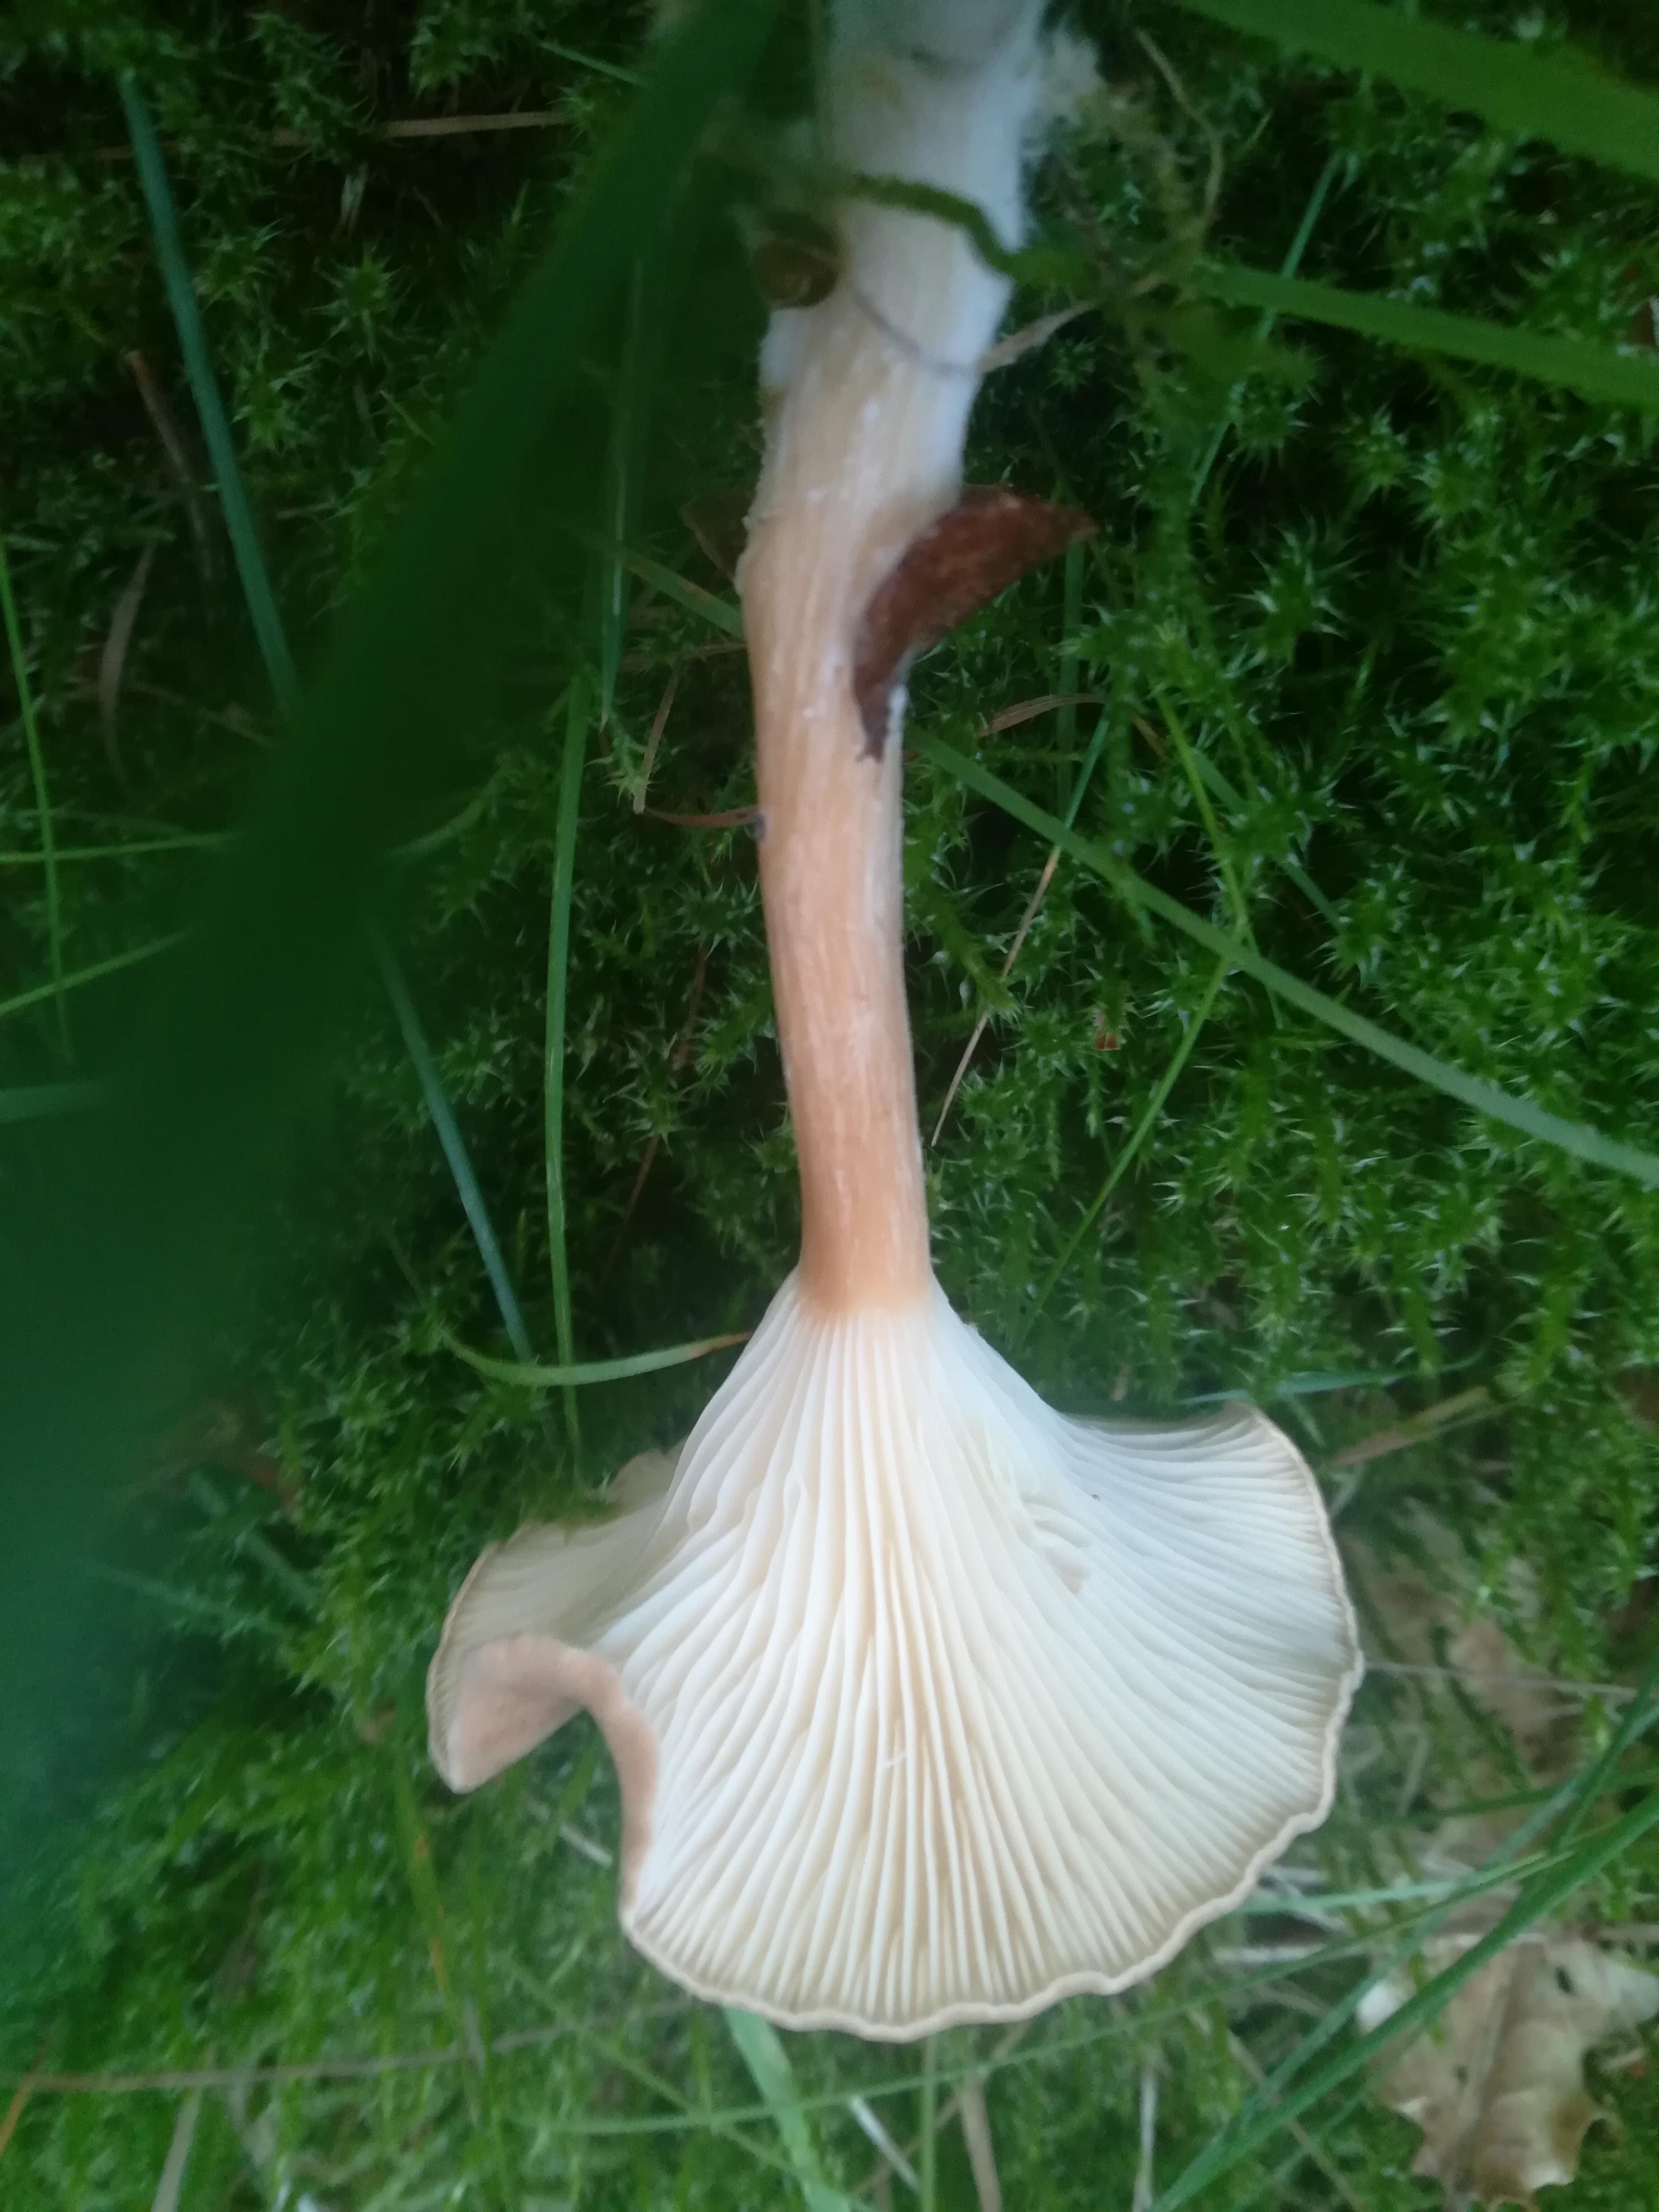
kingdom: Fungi
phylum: Basidiomycota
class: Agaricomycetes
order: Agaricales
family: Tricholomataceae
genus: Infundibulicybe
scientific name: Infundibulicybe squamulosa
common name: småskællet tragthat
